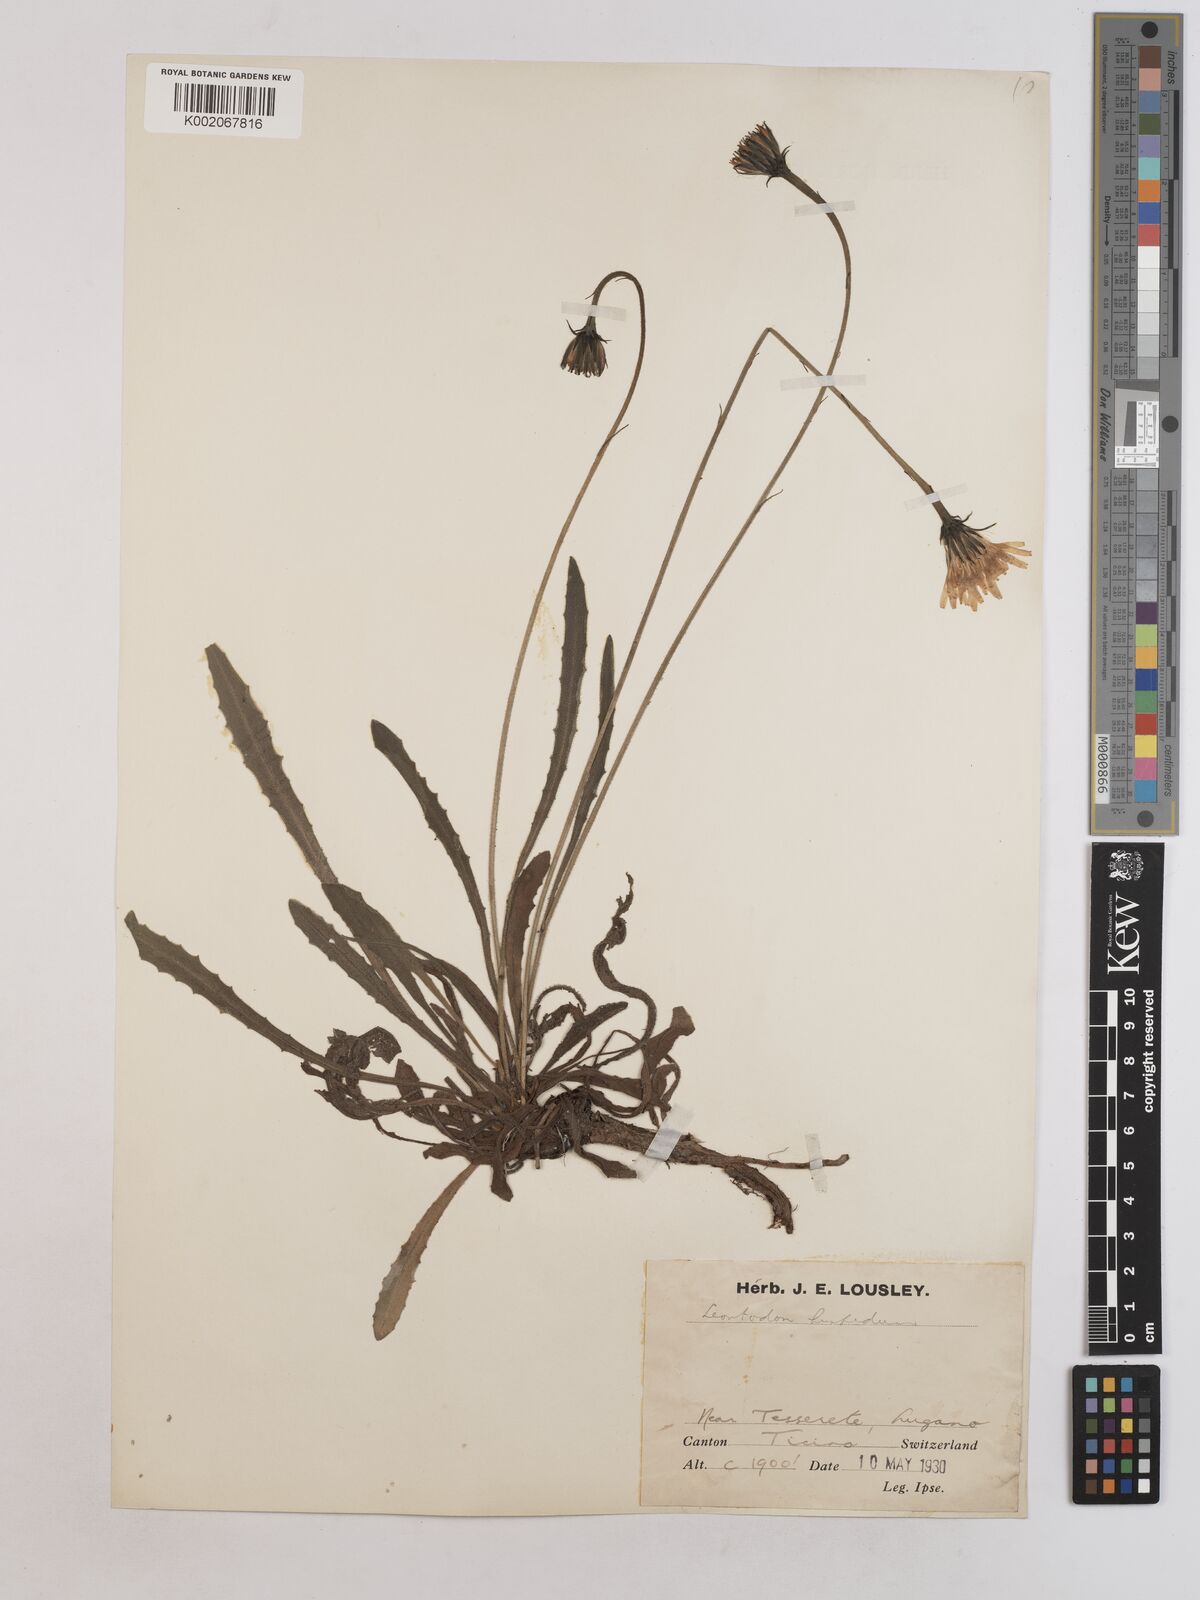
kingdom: Plantae
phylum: Tracheophyta
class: Magnoliopsida
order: Asterales
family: Asteraceae
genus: Leontodon
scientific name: Leontodon hispidus
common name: Rough hawkbit
